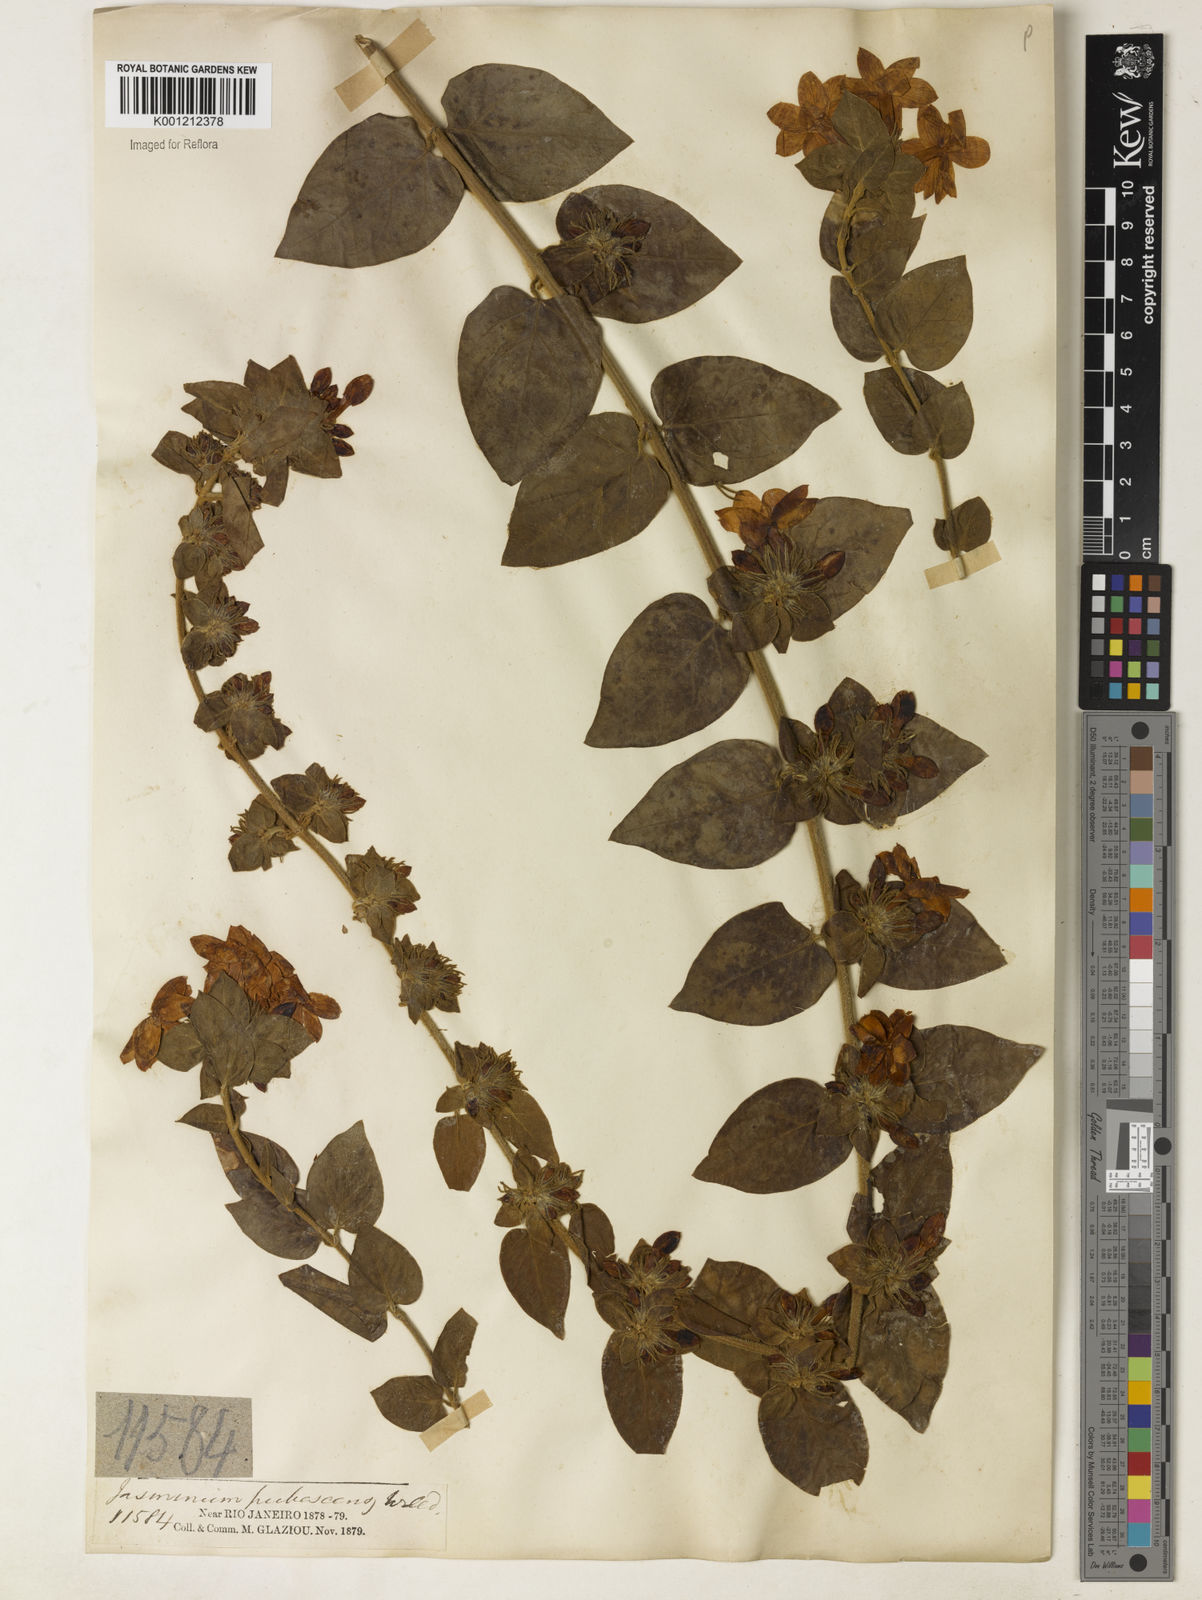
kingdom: Plantae
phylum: Tracheophyta
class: Magnoliopsida
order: Lamiales
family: Oleaceae
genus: Jasminum
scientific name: Jasminum multiflorum
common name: Star jasmine
